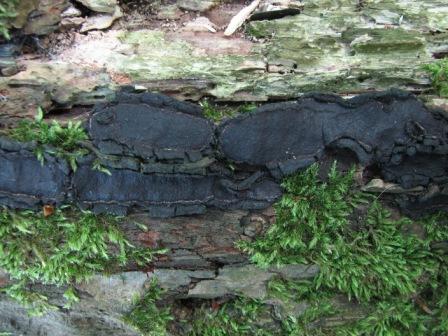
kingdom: Fungi
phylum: Ascomycota
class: Sordariomycetes
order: Xylariales
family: Graphostromataceae
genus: Biscogniauxia
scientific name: Biscogniauxia repanda
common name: krone-kulskive
